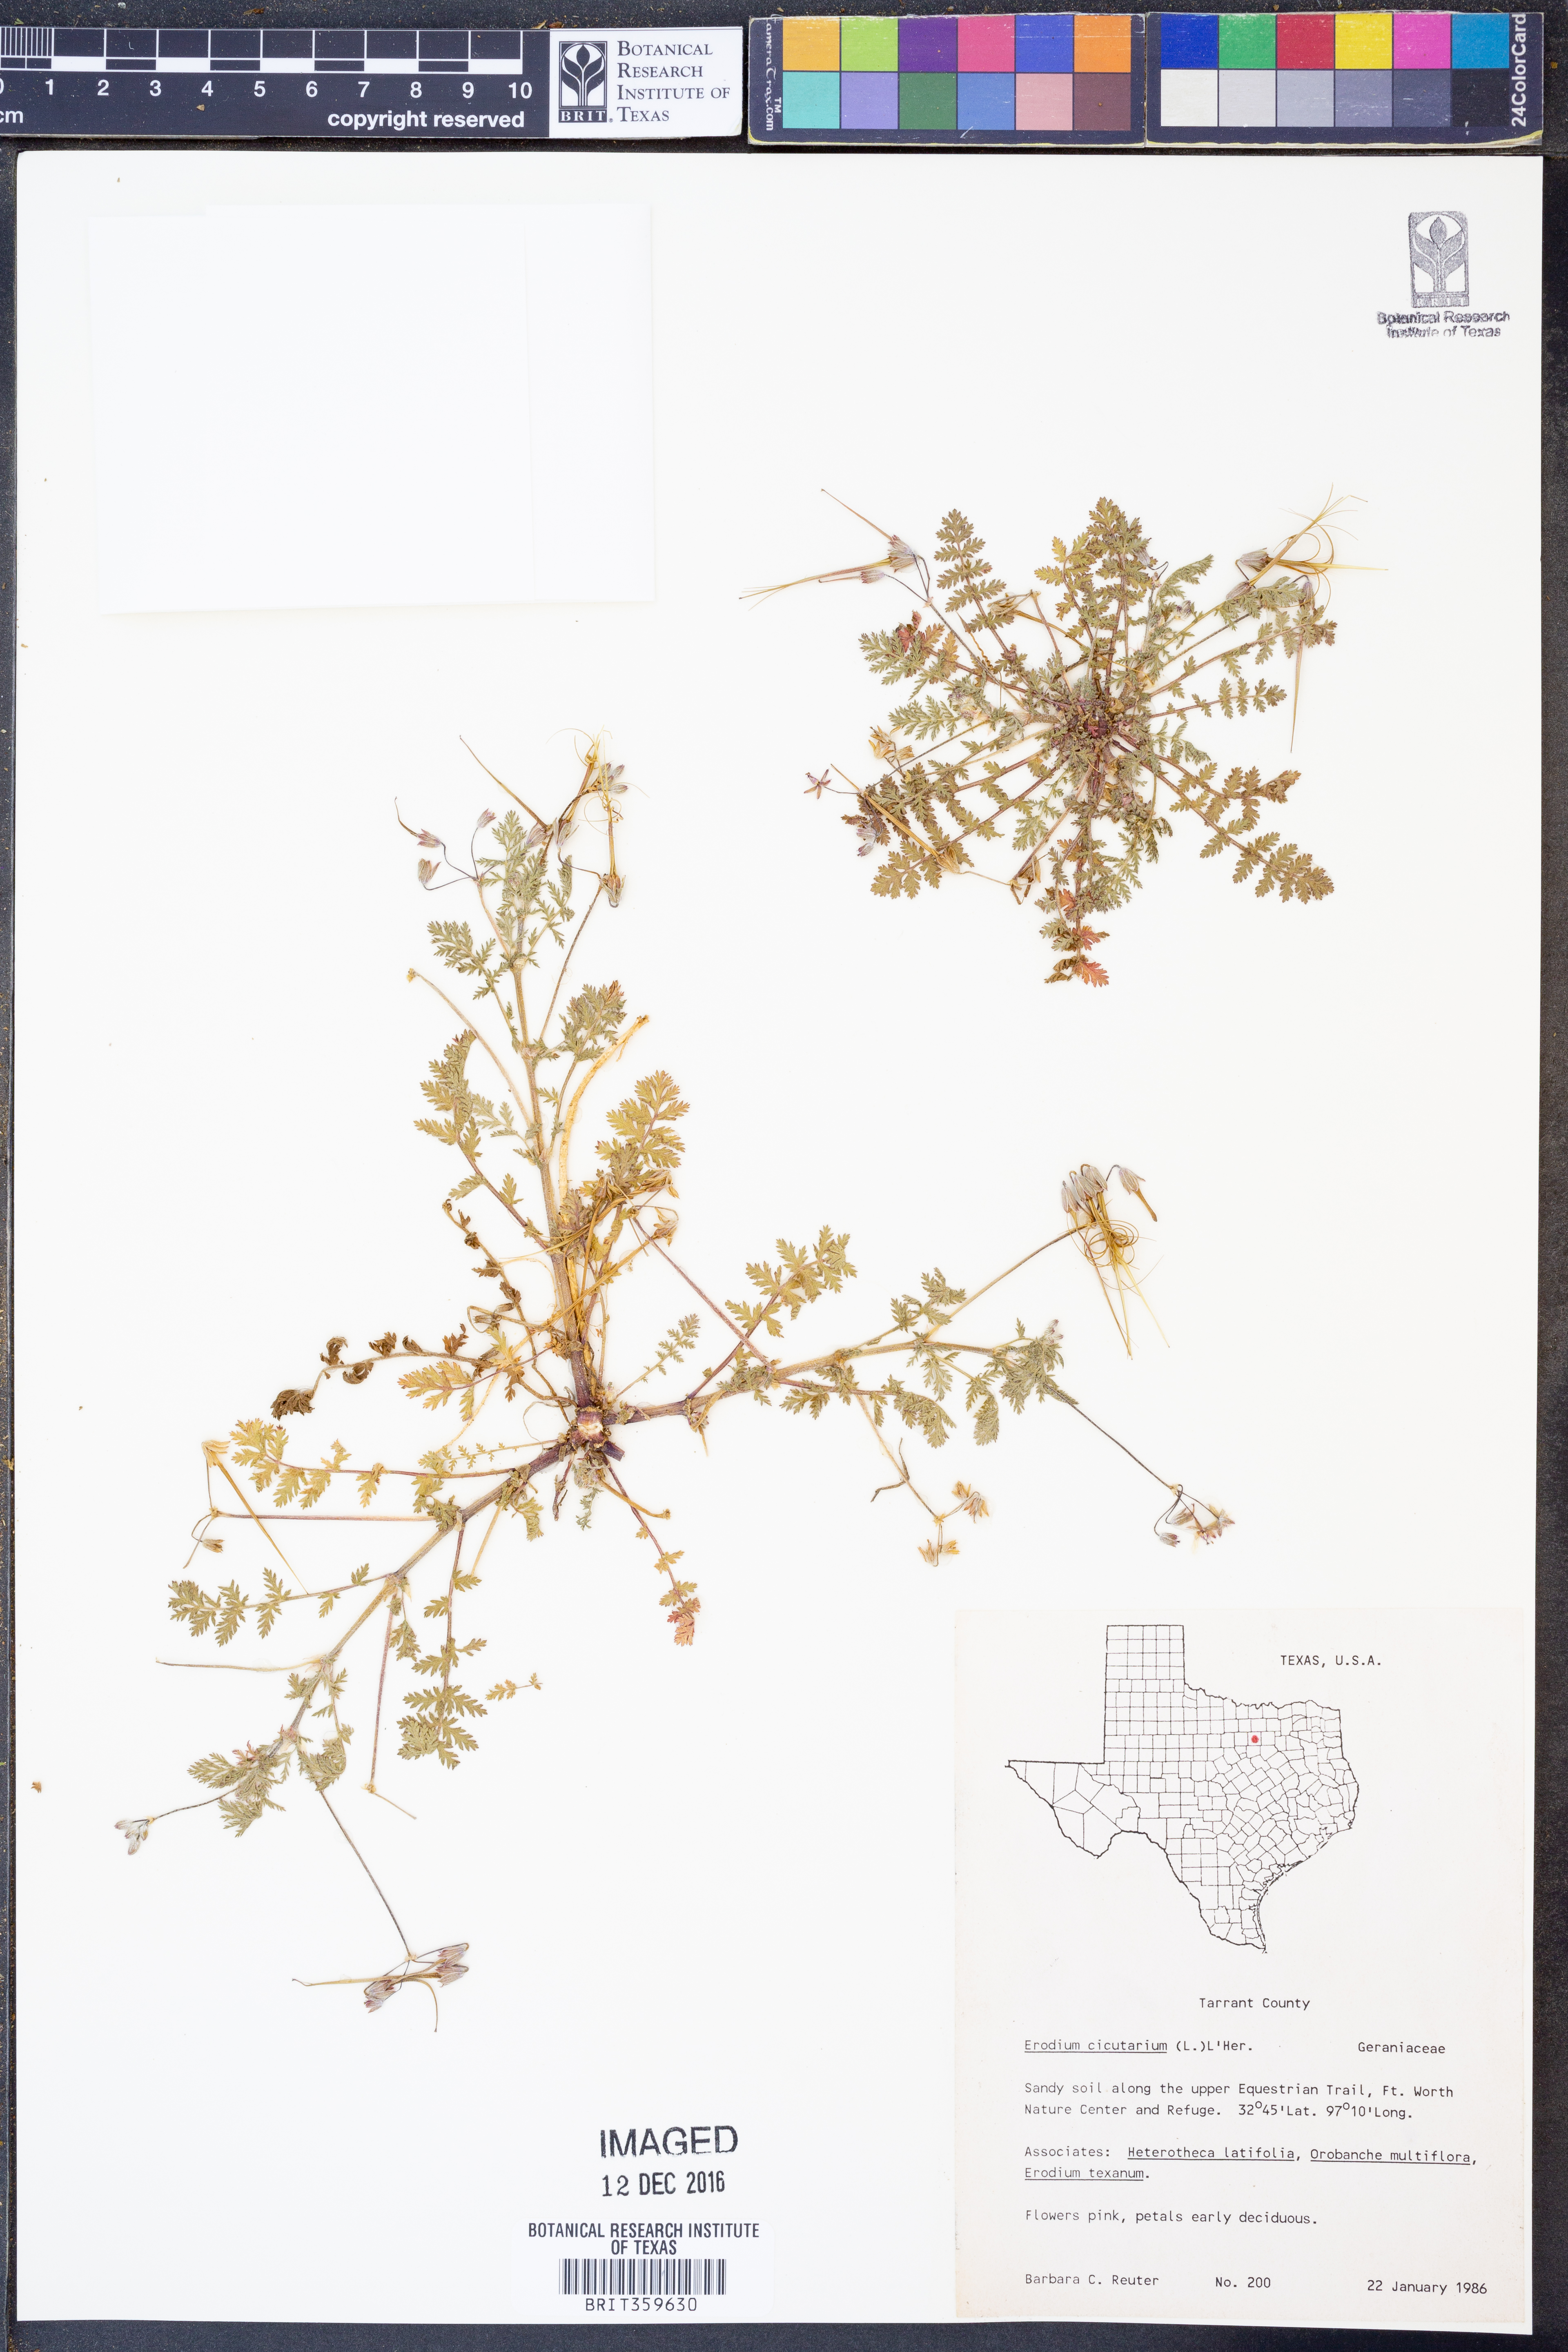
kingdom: Plantae
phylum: Tracheophyta
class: Magnoliopsida
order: Geraniales
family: Geraniaceae
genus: Erodium
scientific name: Erodium cicutarium
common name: Common stork's-bill
